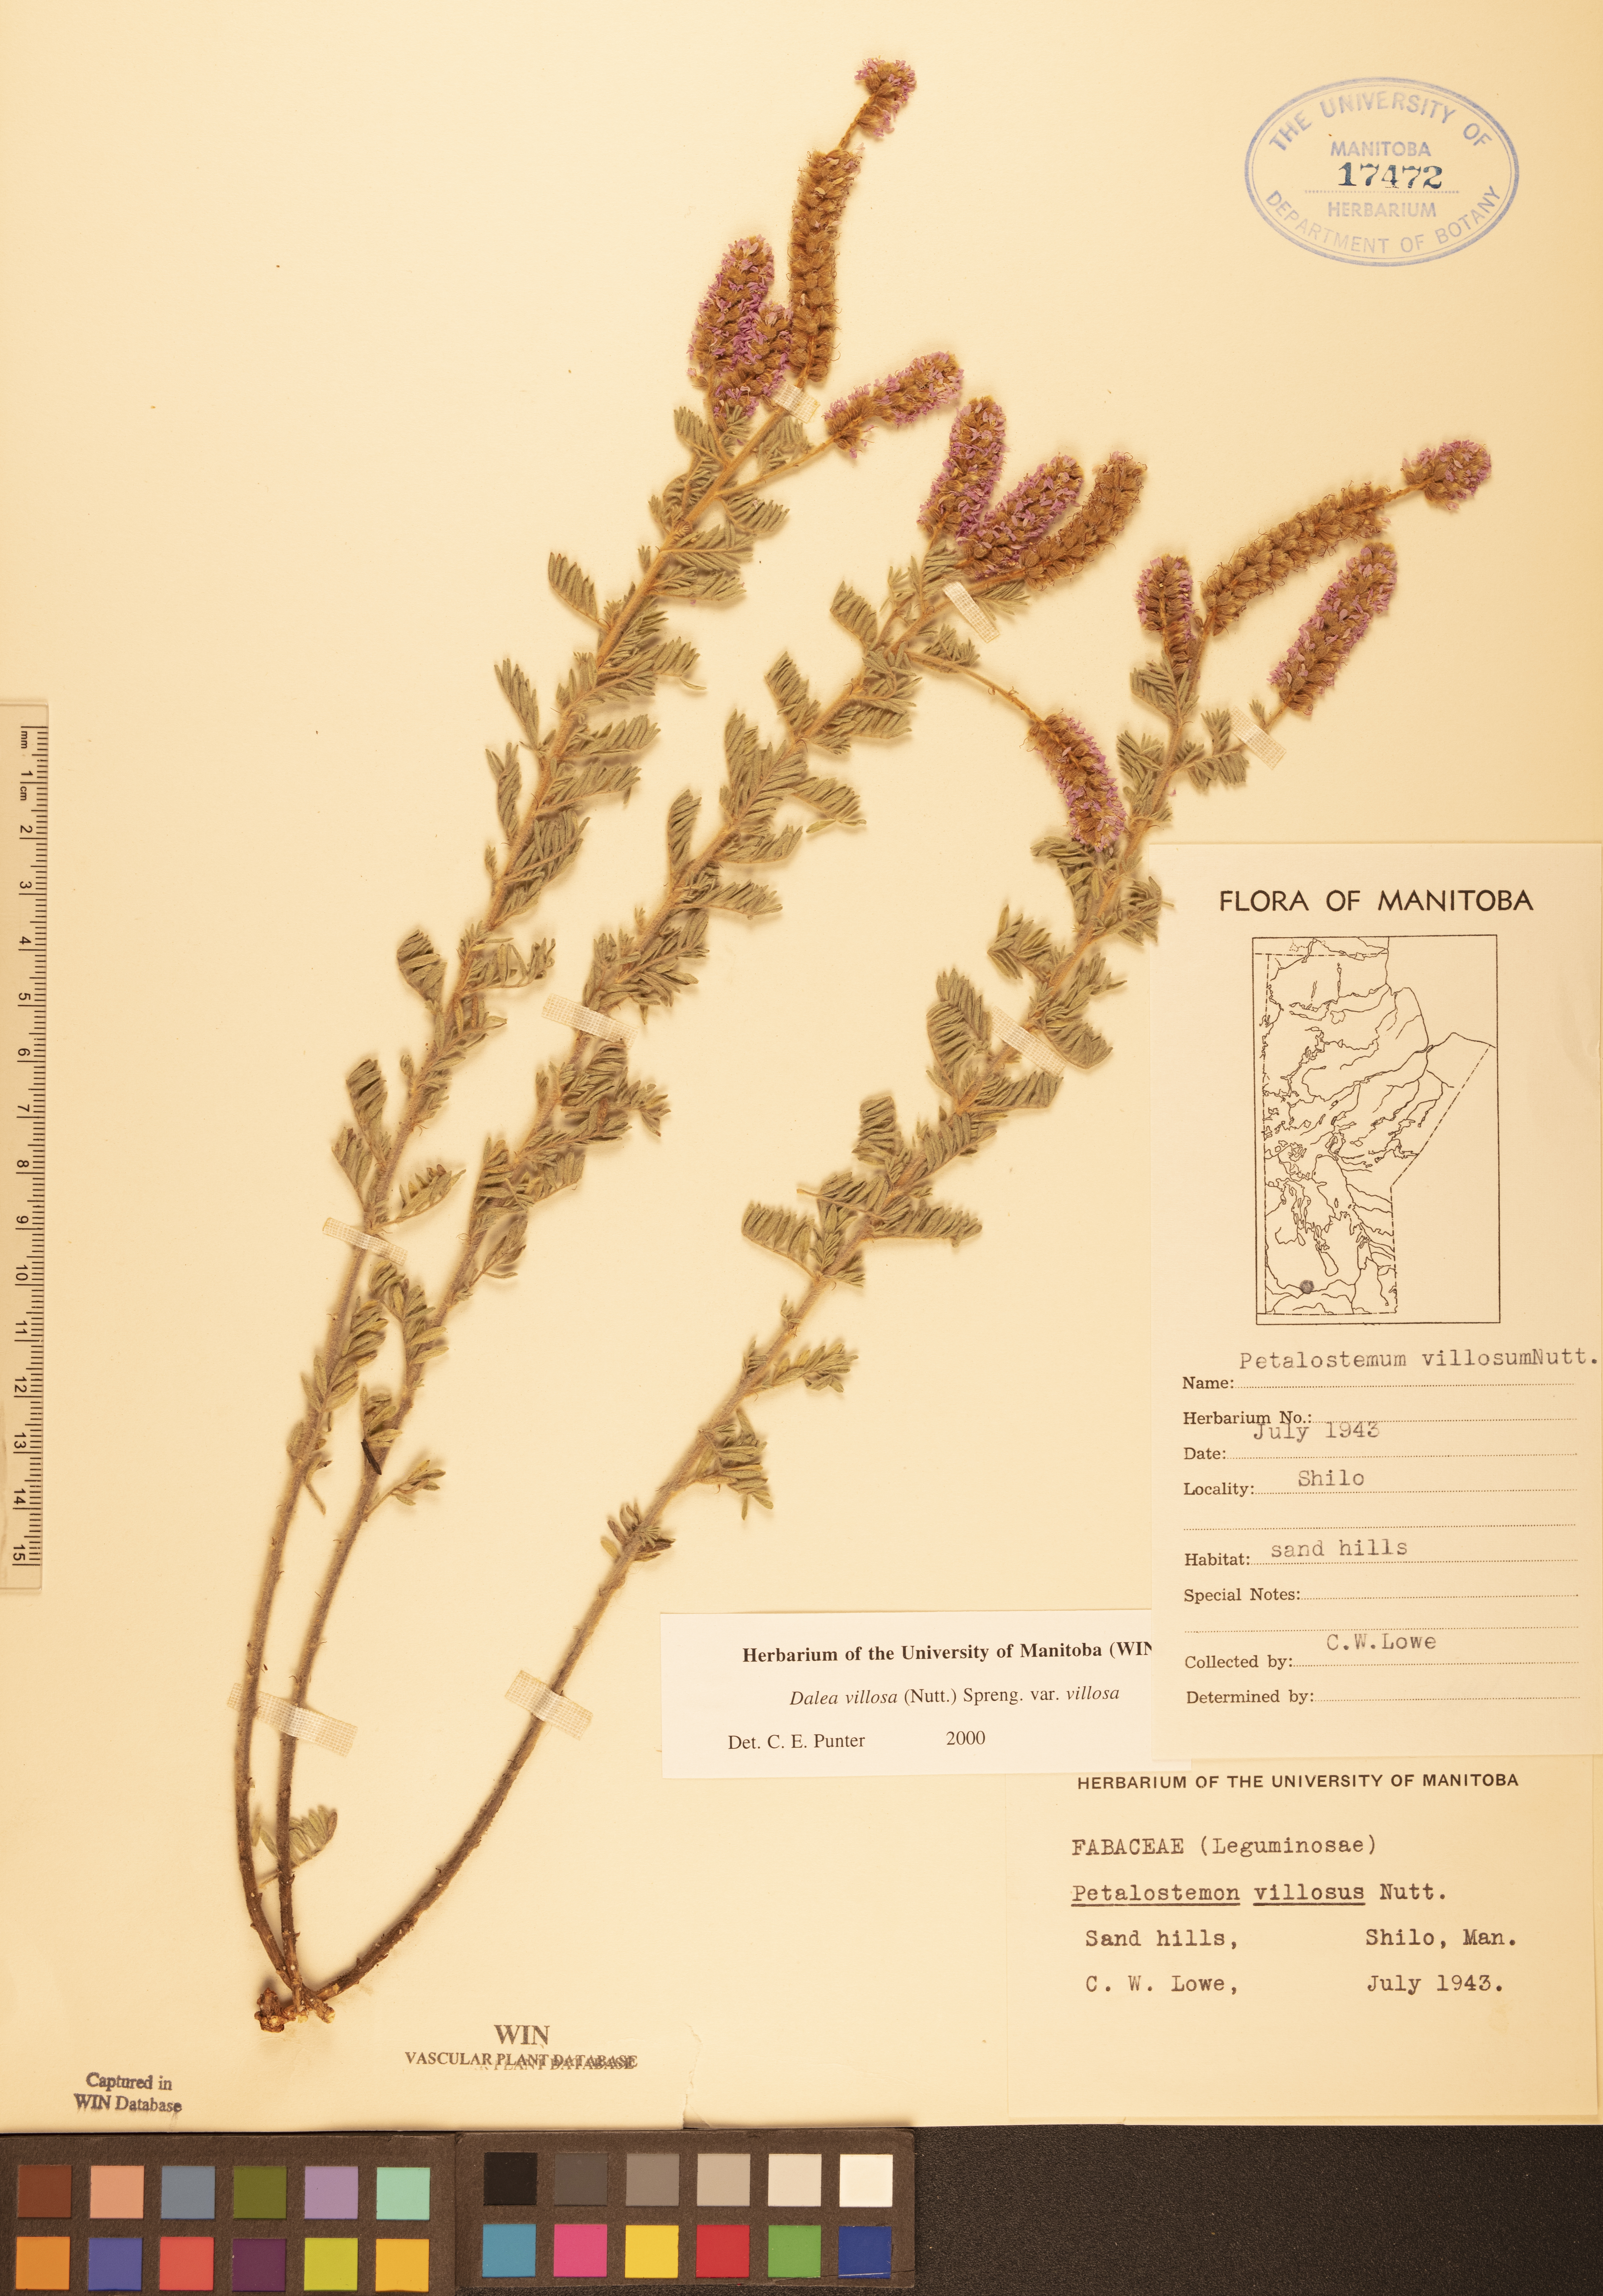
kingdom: Plantae
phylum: Tracheophyta
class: Magnoliopsida
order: Fabales
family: Fabaceae
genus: Dalea
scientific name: Dalea villosa
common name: Silky prairie-clover
